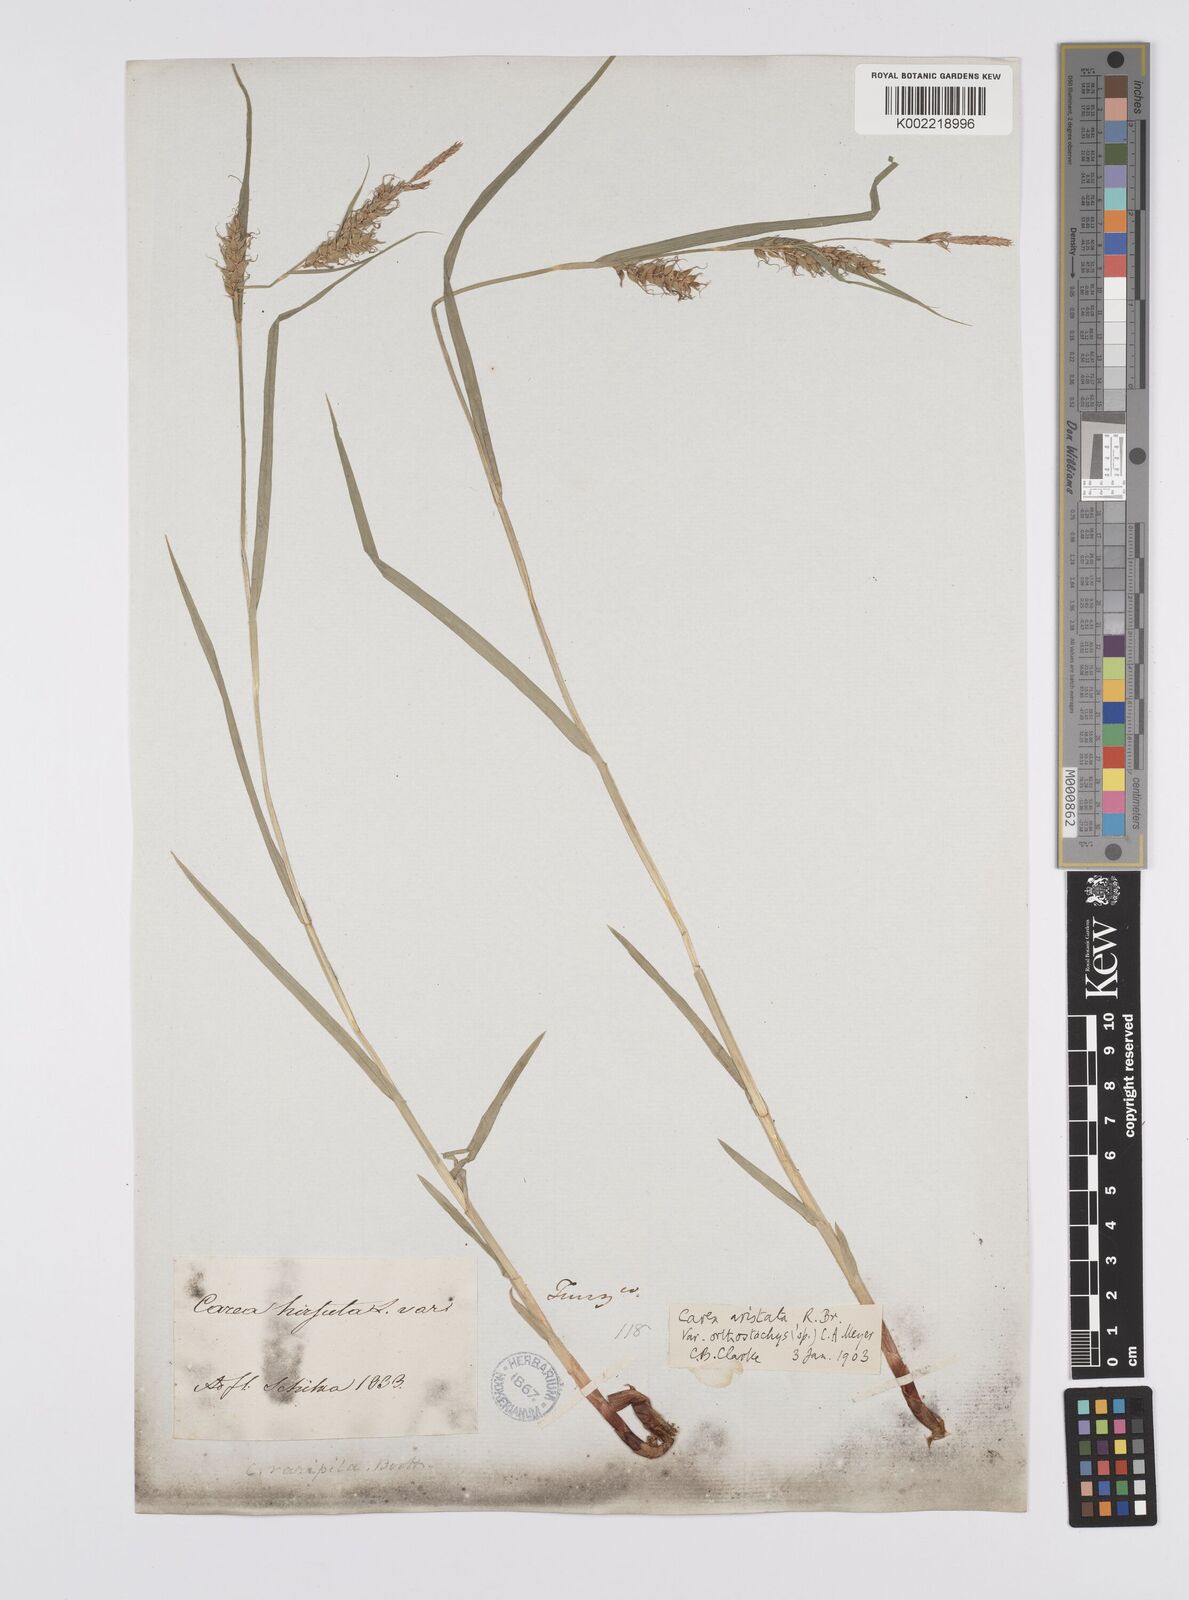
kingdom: Plantae
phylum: Tracheophyta
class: Liliopsida
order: Poales
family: Cyperaceae
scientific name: Cyperaceae
